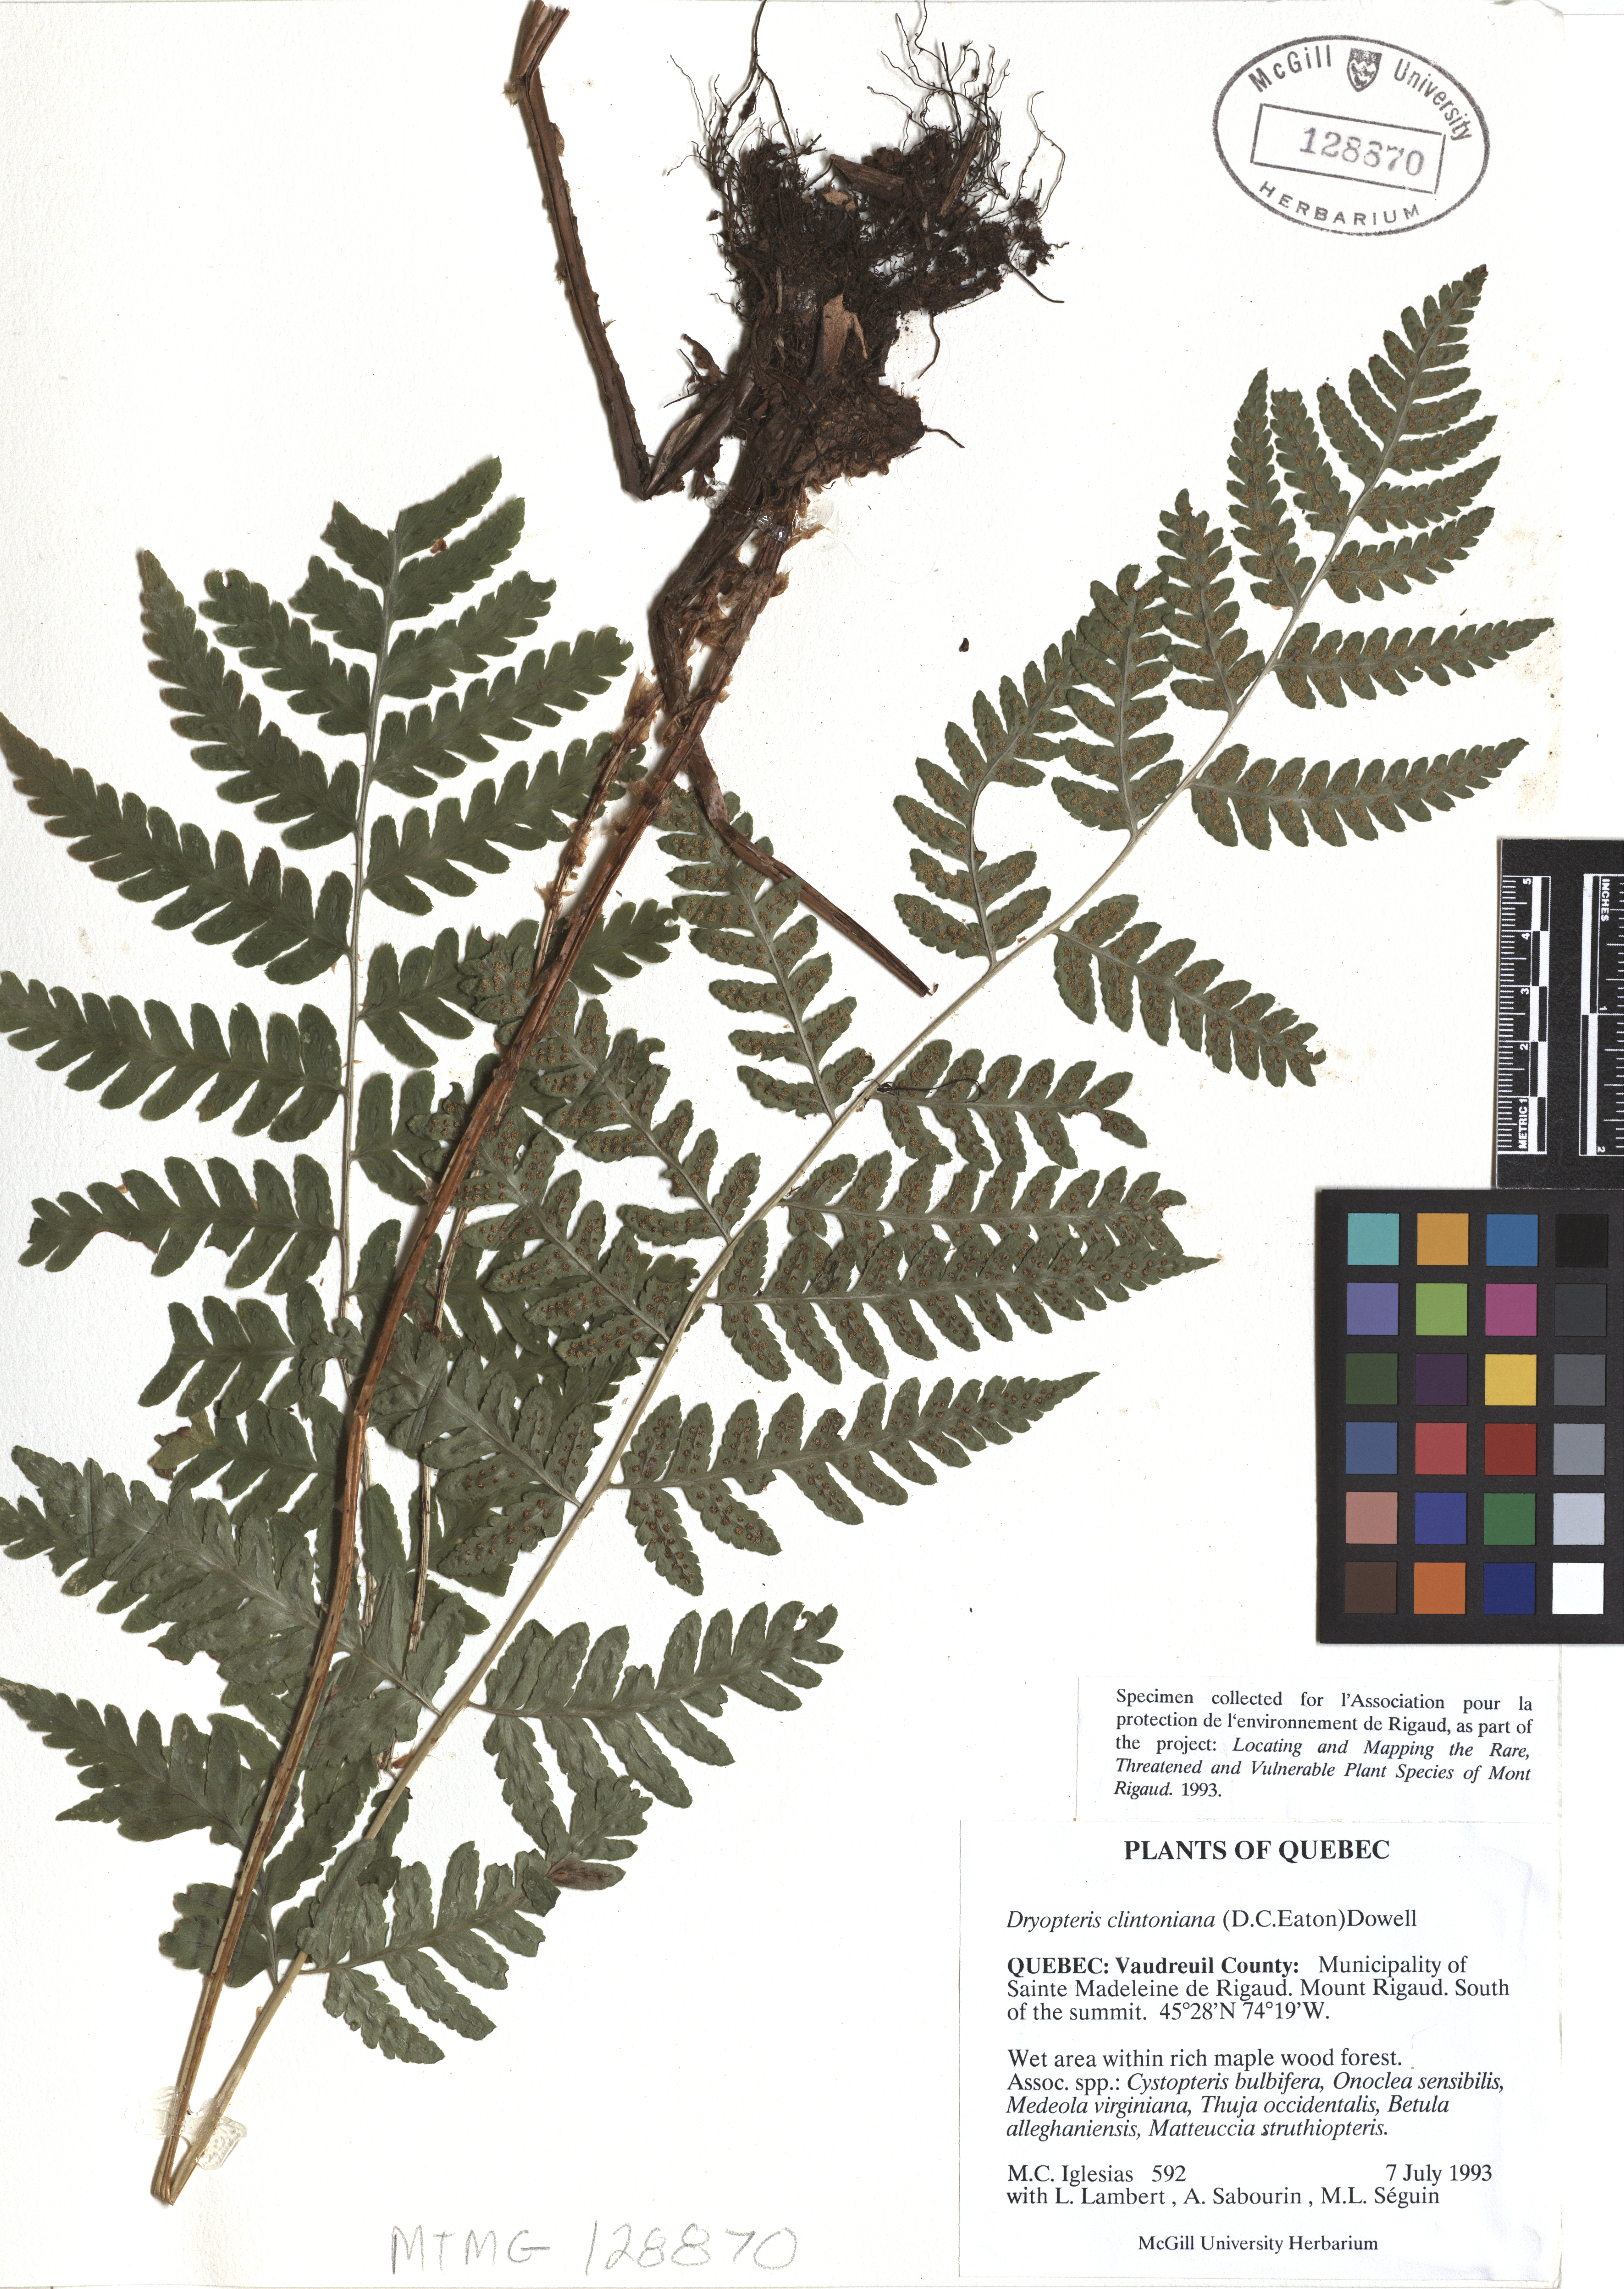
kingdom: Plantae
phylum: Tracheophyta
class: Polypodiopsida
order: Polypodiales
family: Dryopteridaceae
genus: Dryopteris
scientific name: Dryopteris clintoniana
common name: Clinton's wood fern
